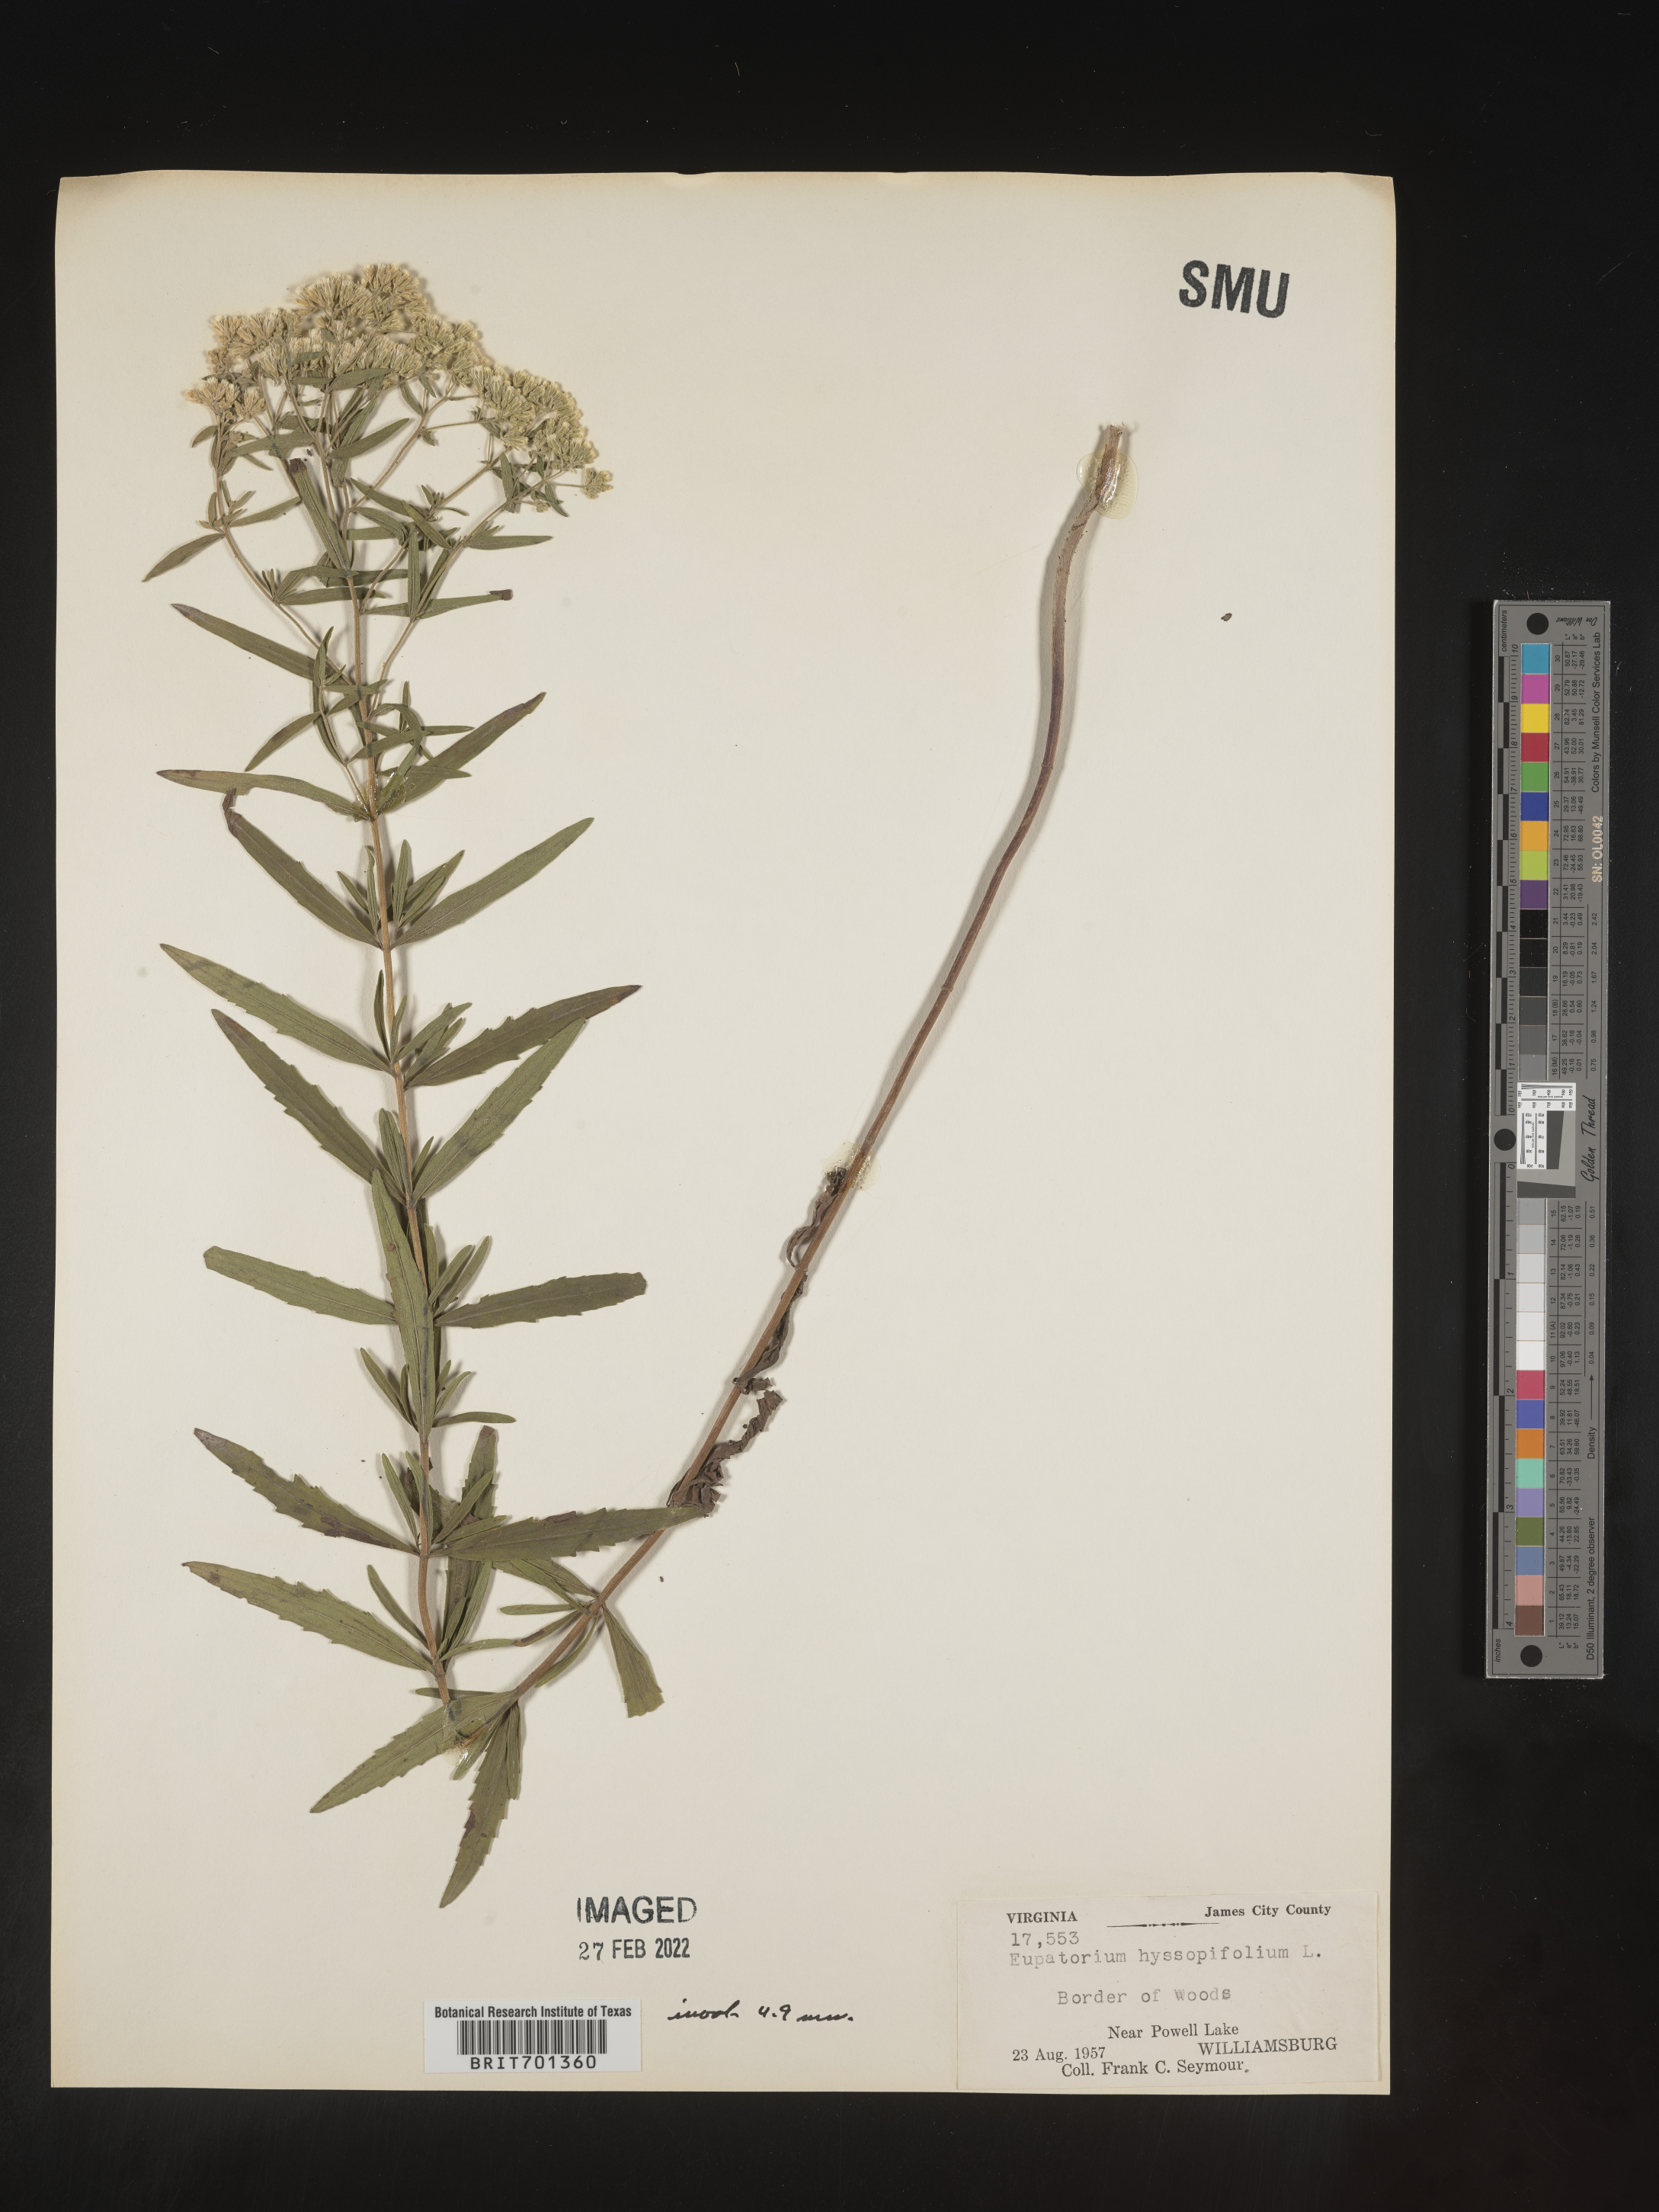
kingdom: Plantae
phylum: Tracheophyta
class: Magnoliopsida
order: Asterales
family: Asteraceae
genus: Eupatorium
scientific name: Eupatorium hyssopifolium
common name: Hyssop-leaf thoroughwort
